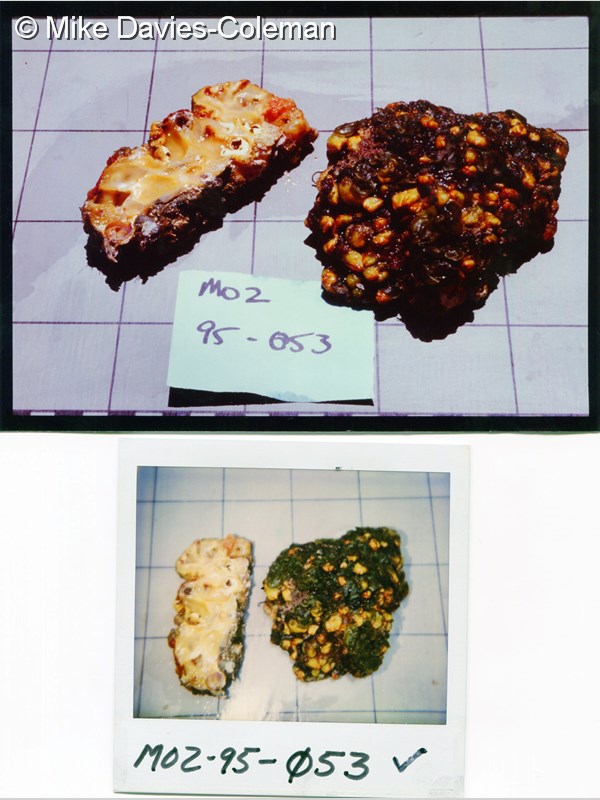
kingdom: Animalia
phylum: Chordata
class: Ascidiacea
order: Phlebobranchia
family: Perophoridae
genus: Ecteinascidia
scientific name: Ecteinascidia
